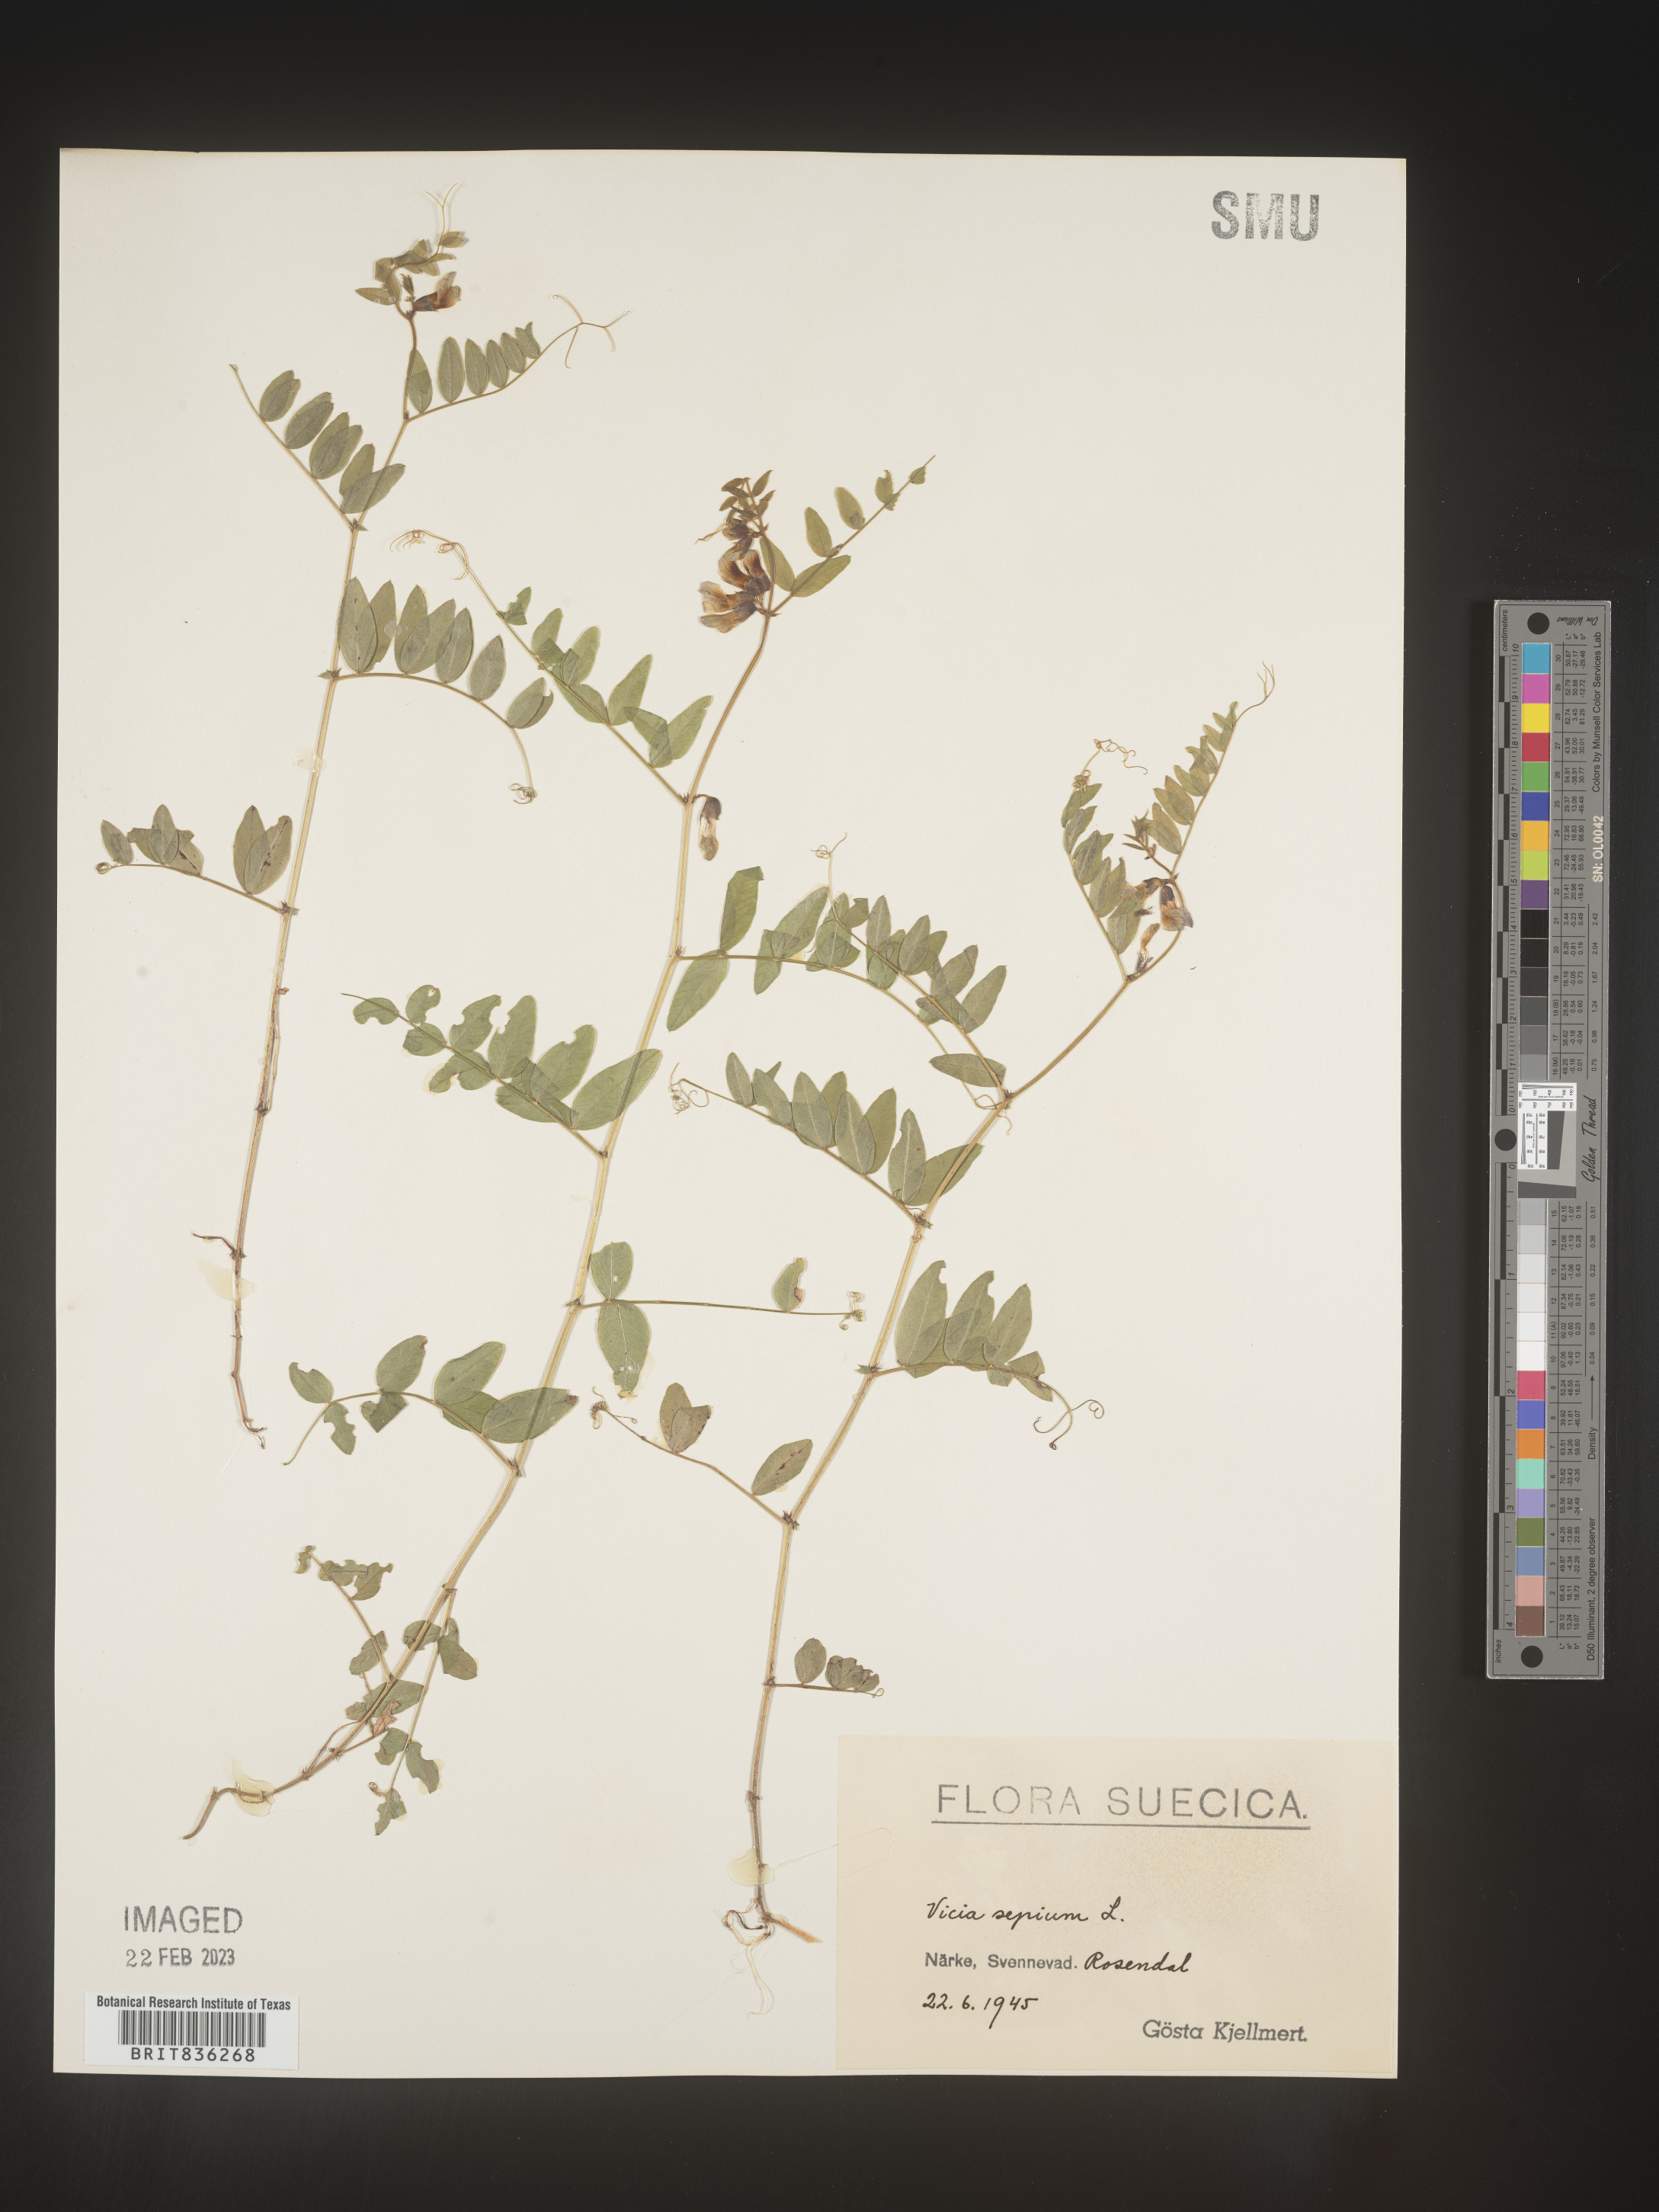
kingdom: Plantae
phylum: Tracheophyta
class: Magnoliopsida
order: Fabales
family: Fabaceae
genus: Vicia
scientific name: Vicia
